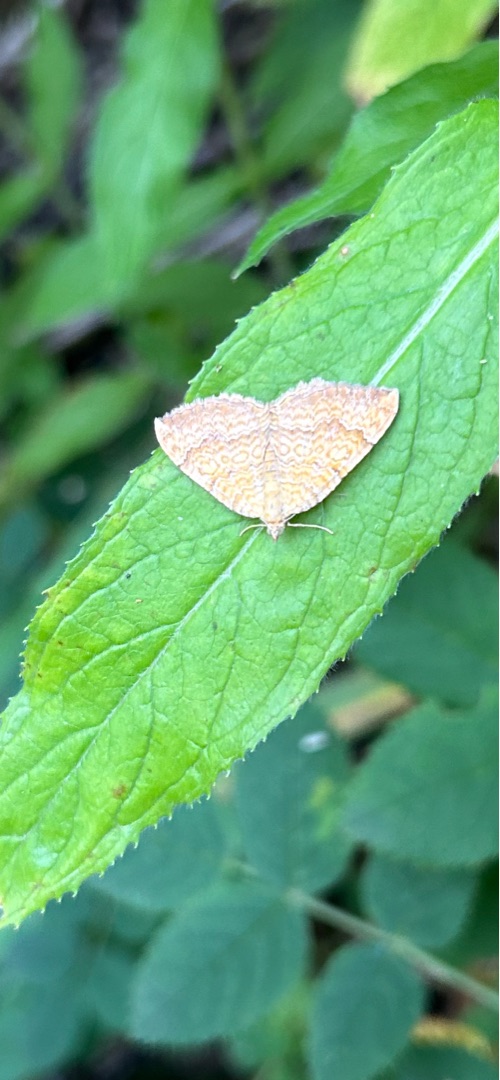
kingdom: Animalia
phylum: Arthropoda
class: Insecta
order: Lepidoptera
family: Geometridae
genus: Camptogramma
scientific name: Camptogramma bilineata
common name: Okkergul bladmåler
